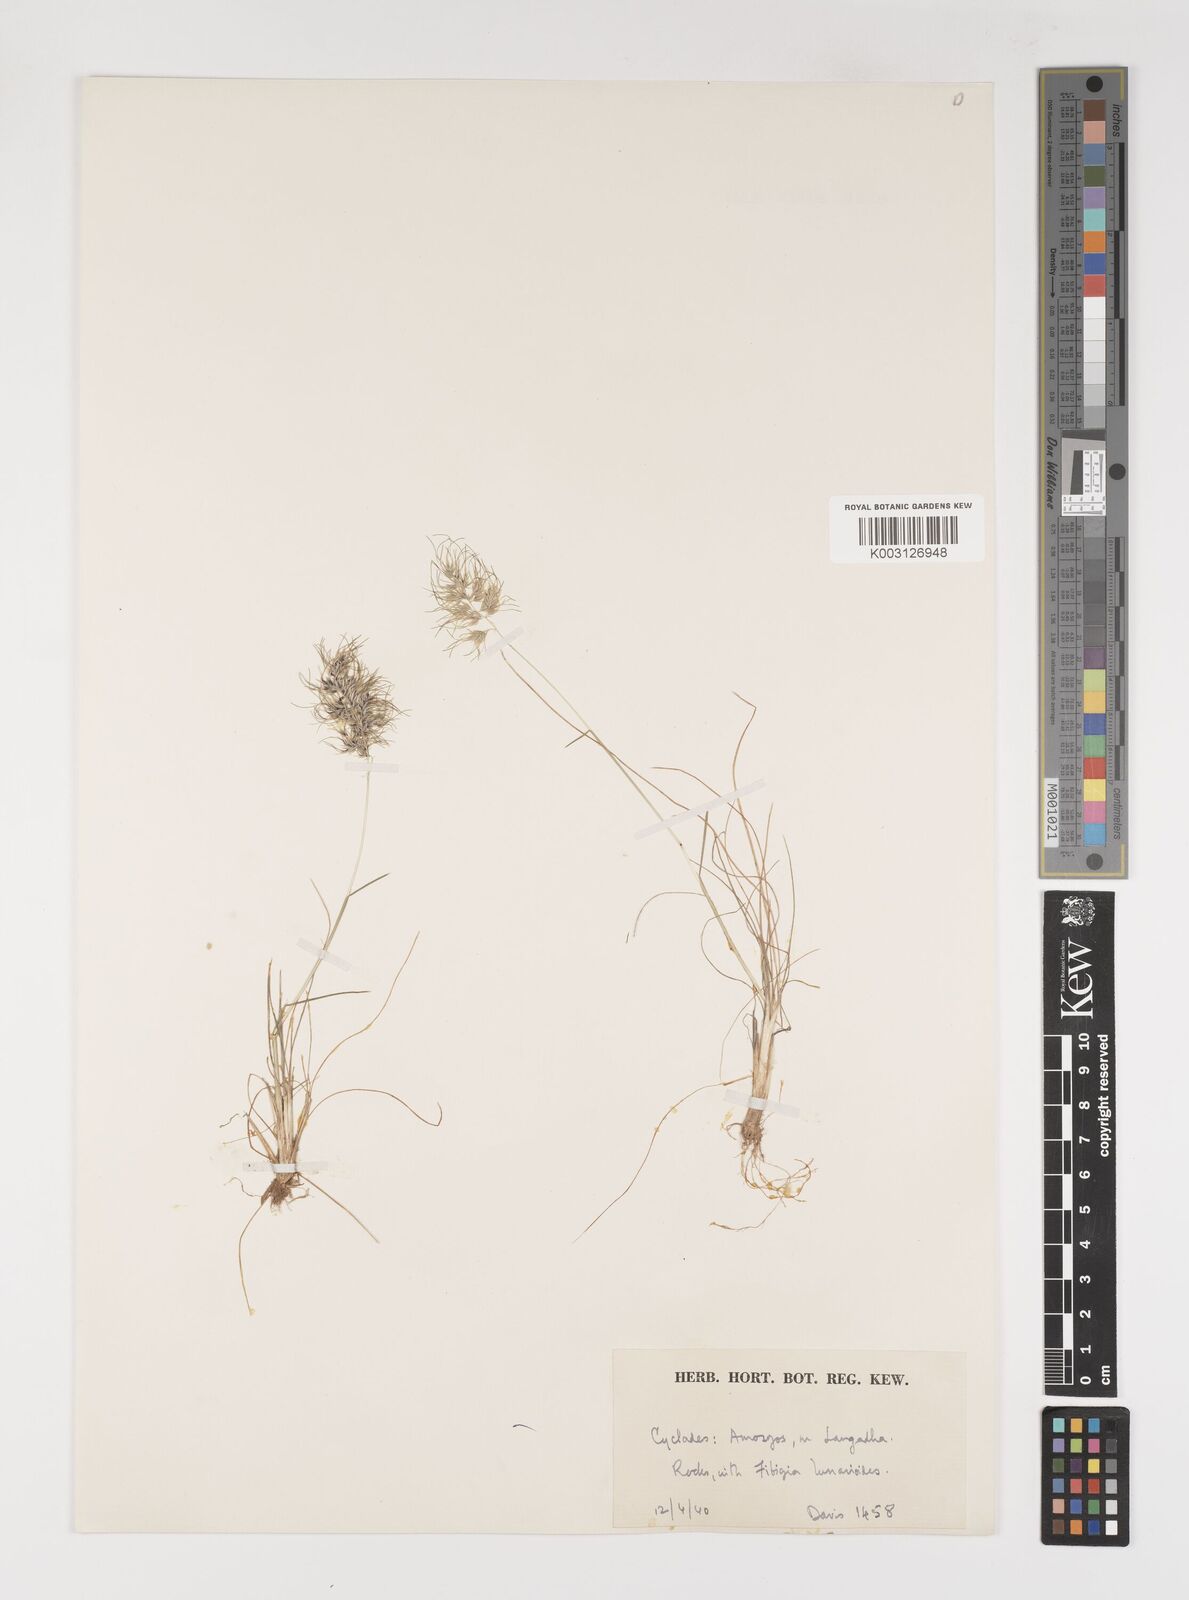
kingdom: Plantae
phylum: Tracheophyta
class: Liliopsida
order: Poales
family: Poaceae
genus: Poa
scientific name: Poa bulbosa
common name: Bulbous bluegrass
